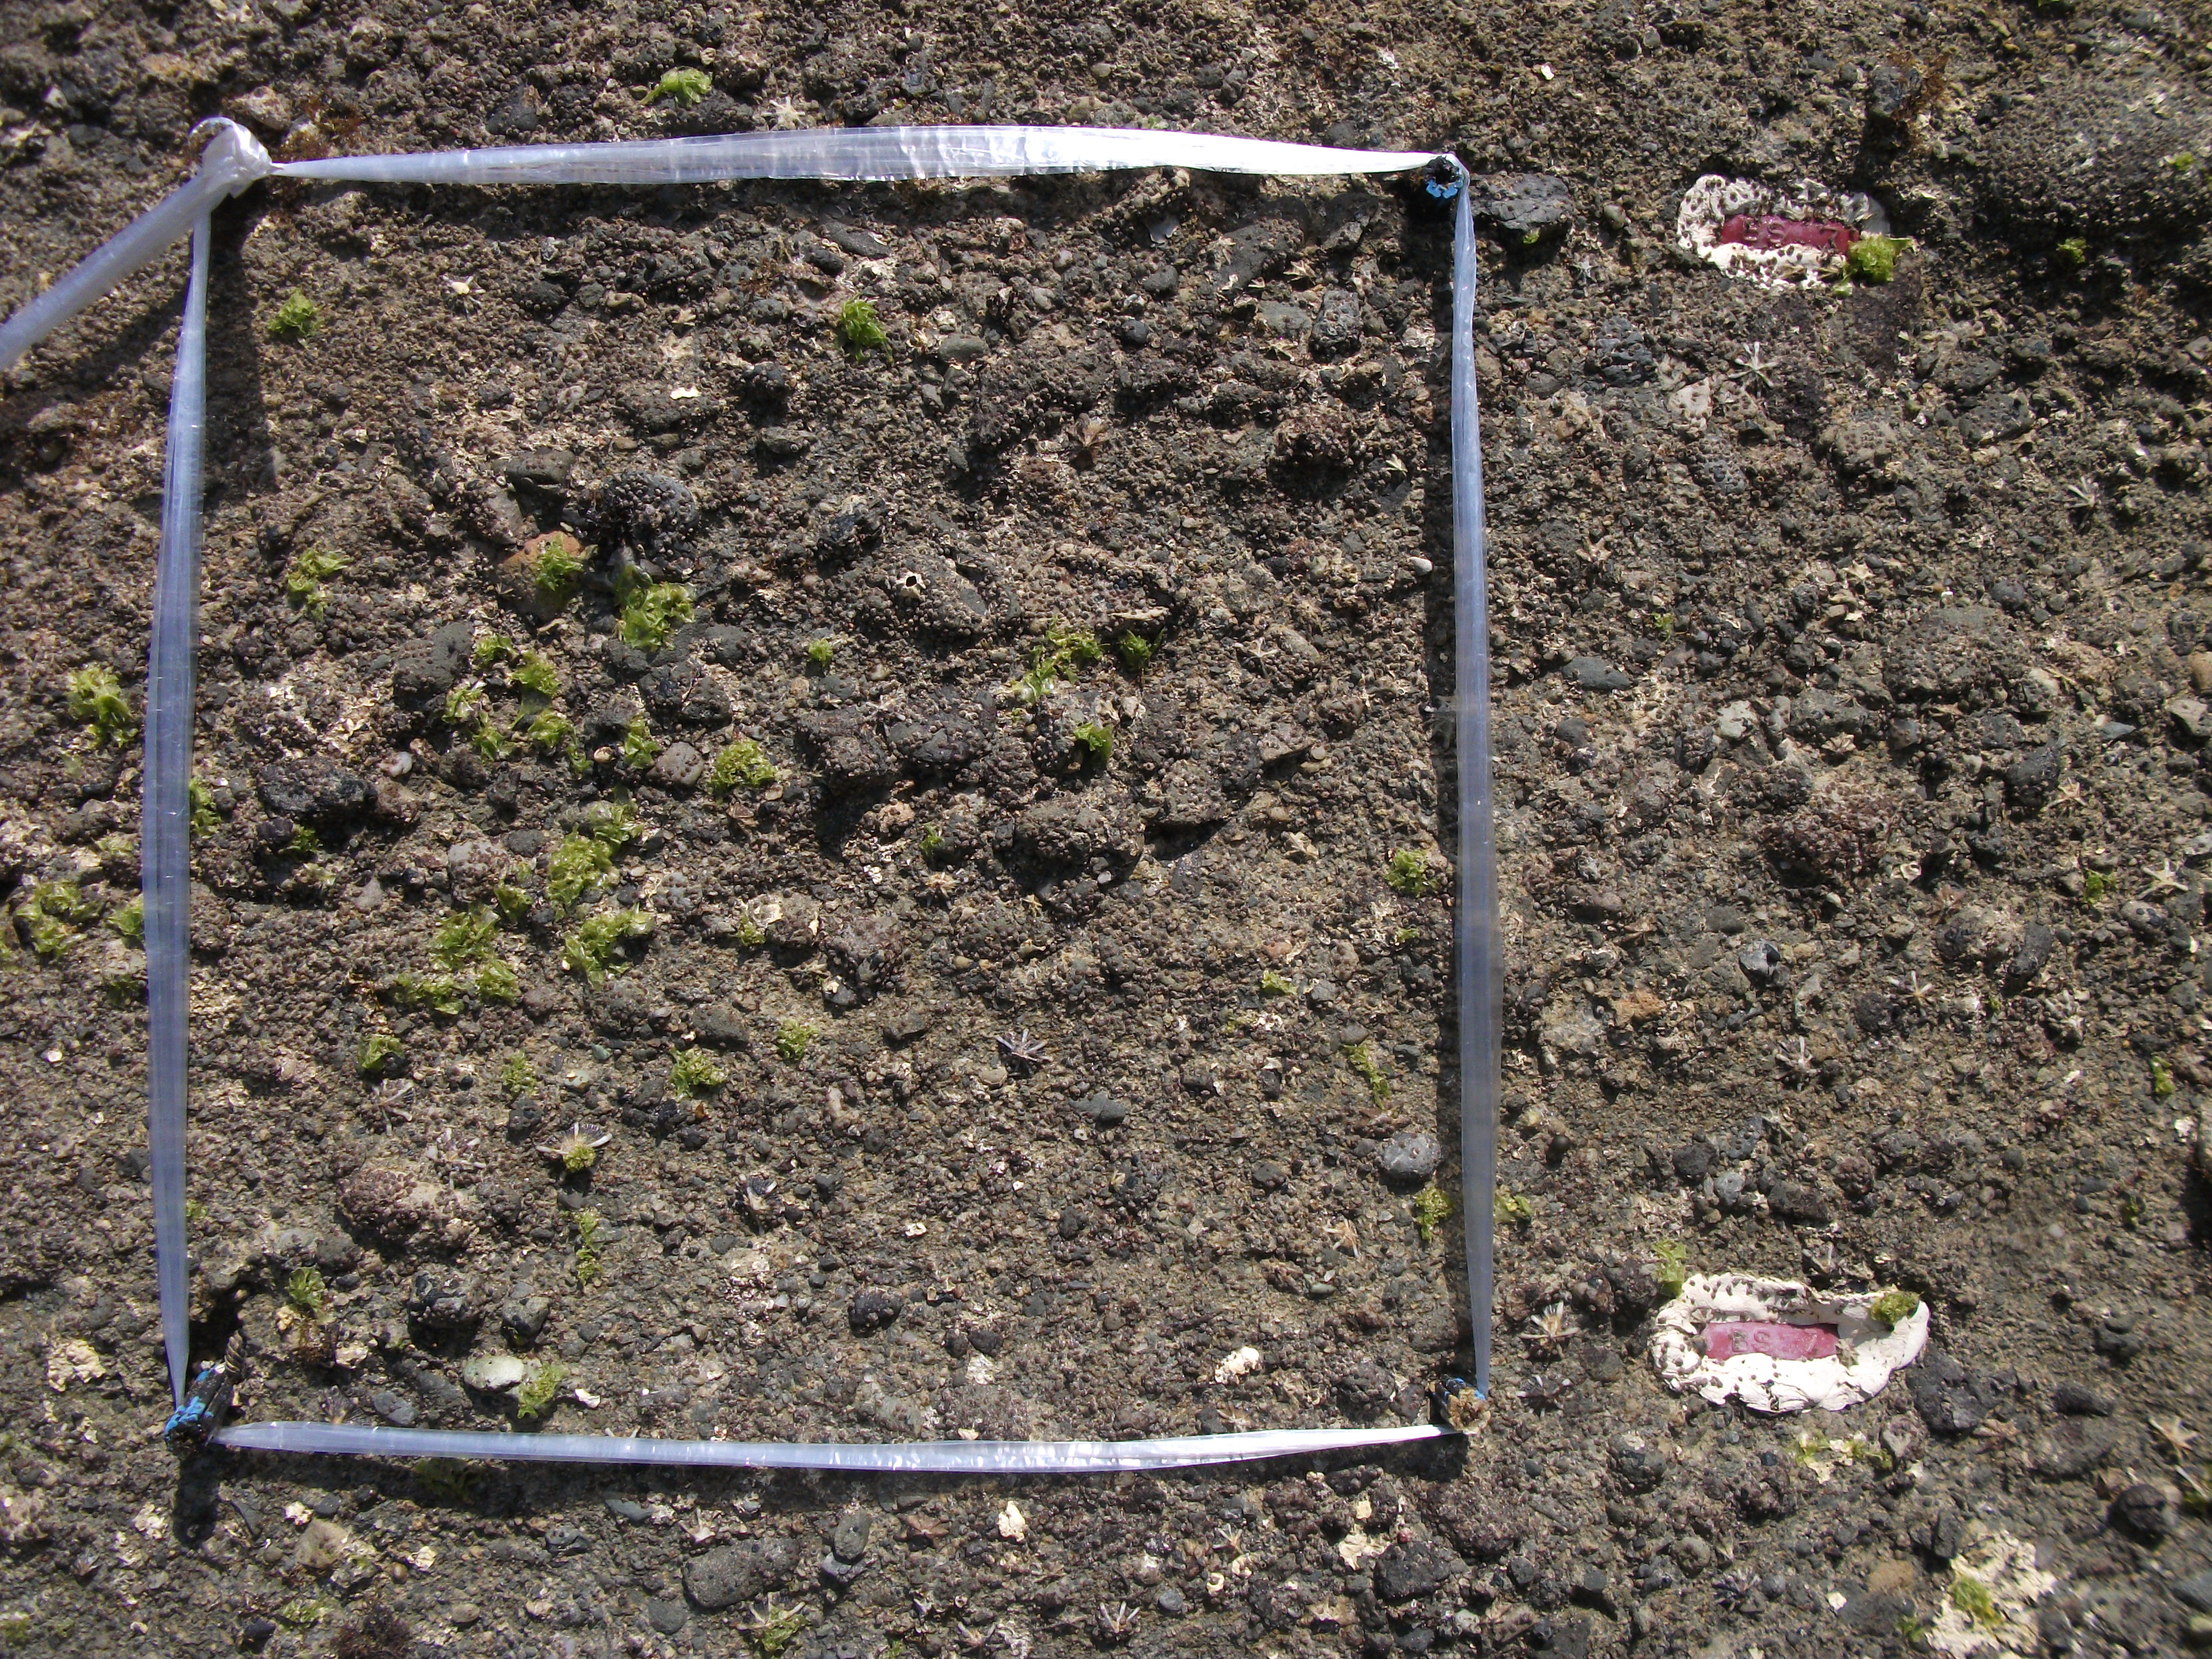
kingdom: Animalia
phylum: Arthropoda
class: Maxillopoda
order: Sessilia
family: Chthamalidae
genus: Chthamalus
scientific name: Chthamalus challengeri
